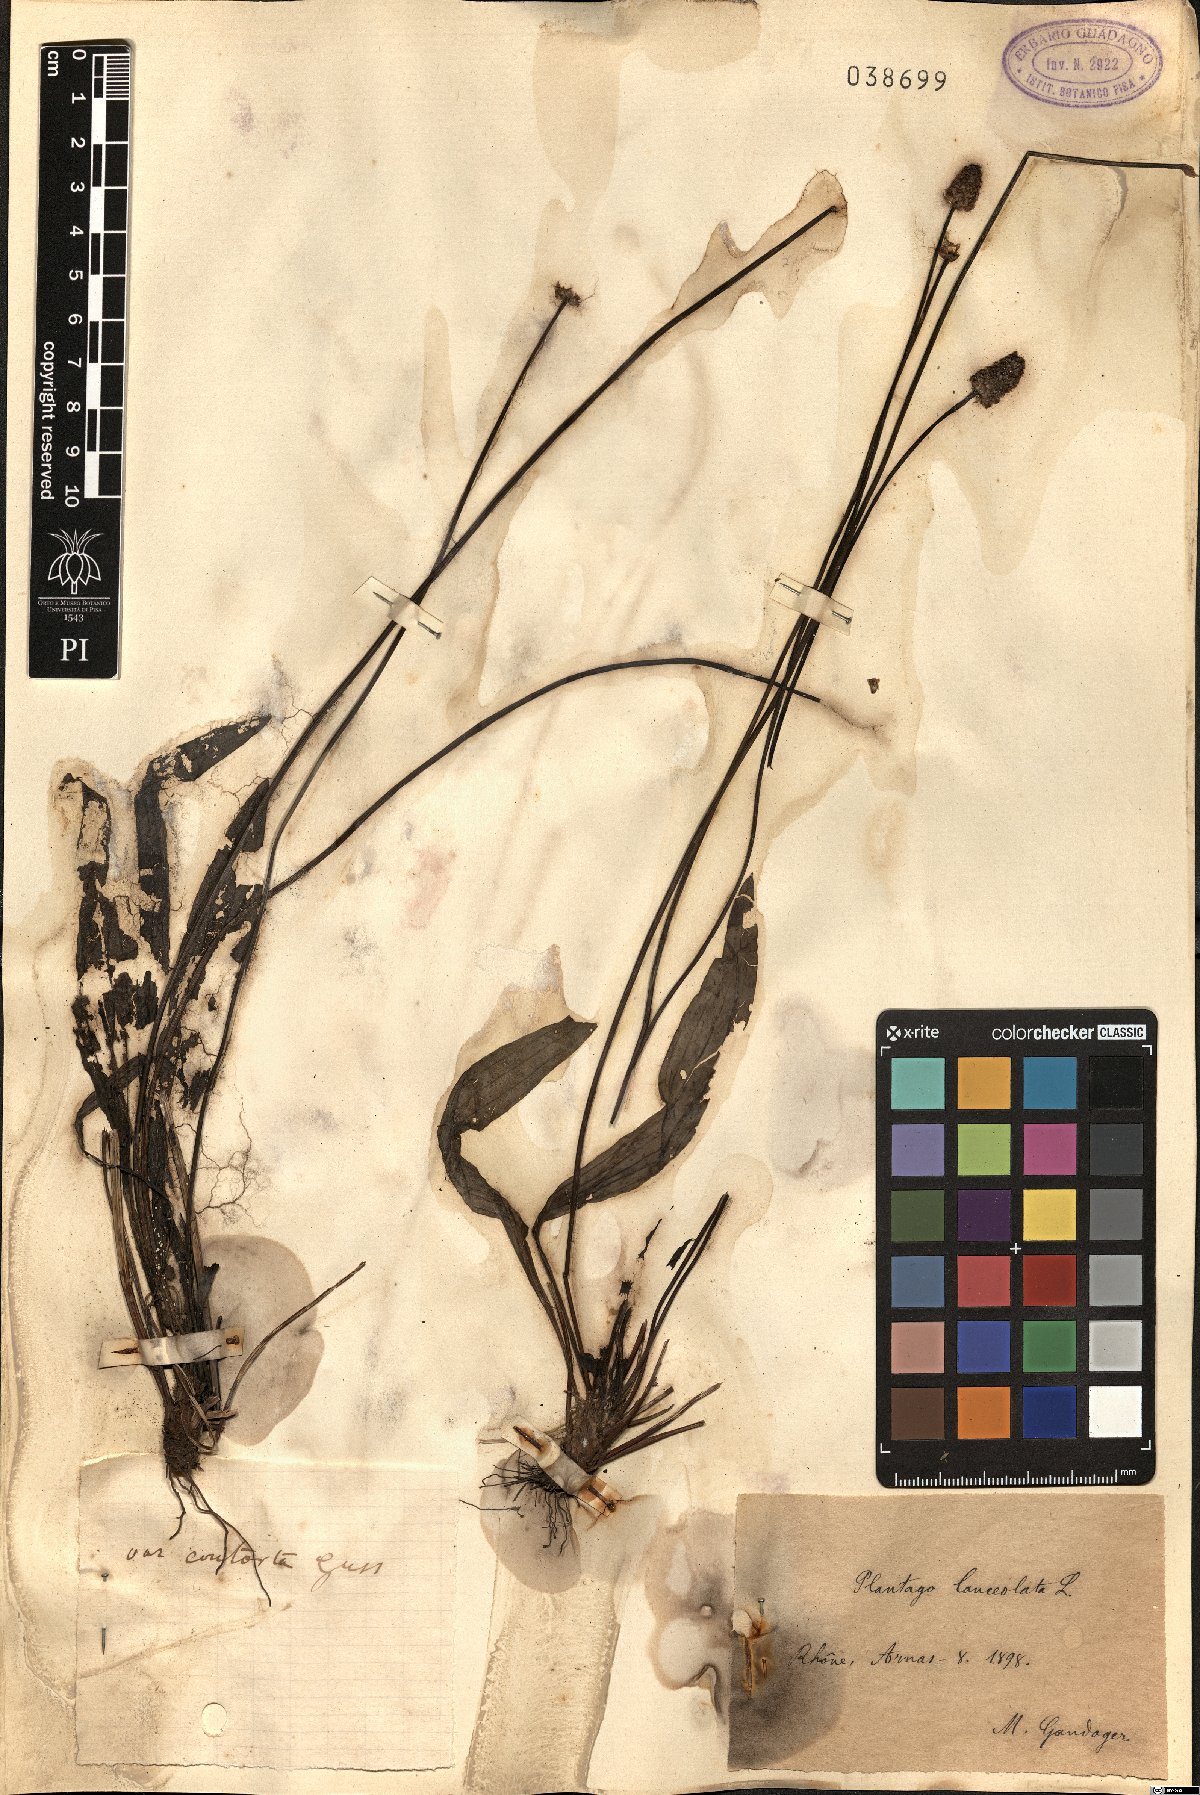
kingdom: Plantae
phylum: Tracheophyta
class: Magnoliopsida
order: Lamiales
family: Plantaginaceae
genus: Plantago
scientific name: Plantago lanceolata
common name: Ribwort plantain
